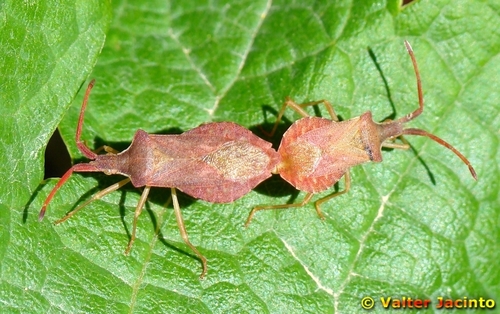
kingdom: Animalia
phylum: Arthropoda
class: Insecta
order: Hemiptera
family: Coreidae
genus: Haploprocta
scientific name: Haploprocta sulcicornis
